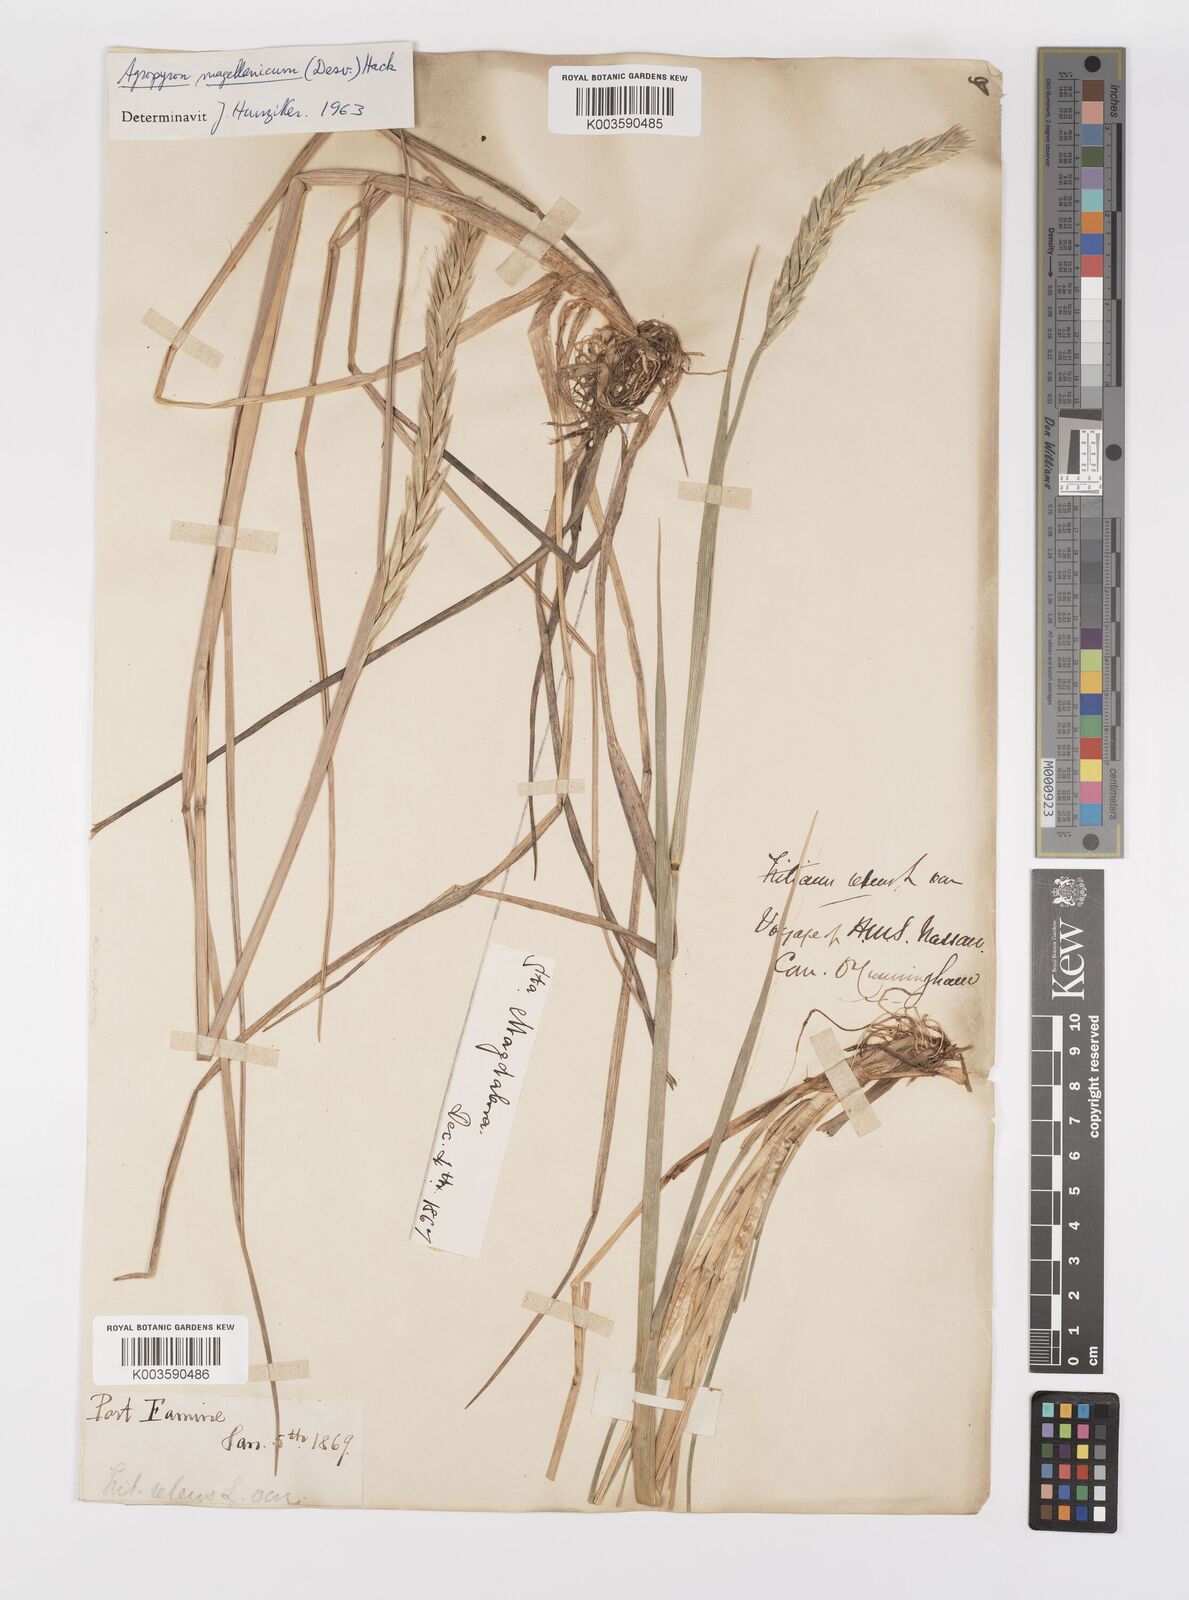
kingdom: Plantae
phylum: Tracheophyta
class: Liliopsida
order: Poales
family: Poaceae
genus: Elymus
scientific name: Elymus magellanicus
